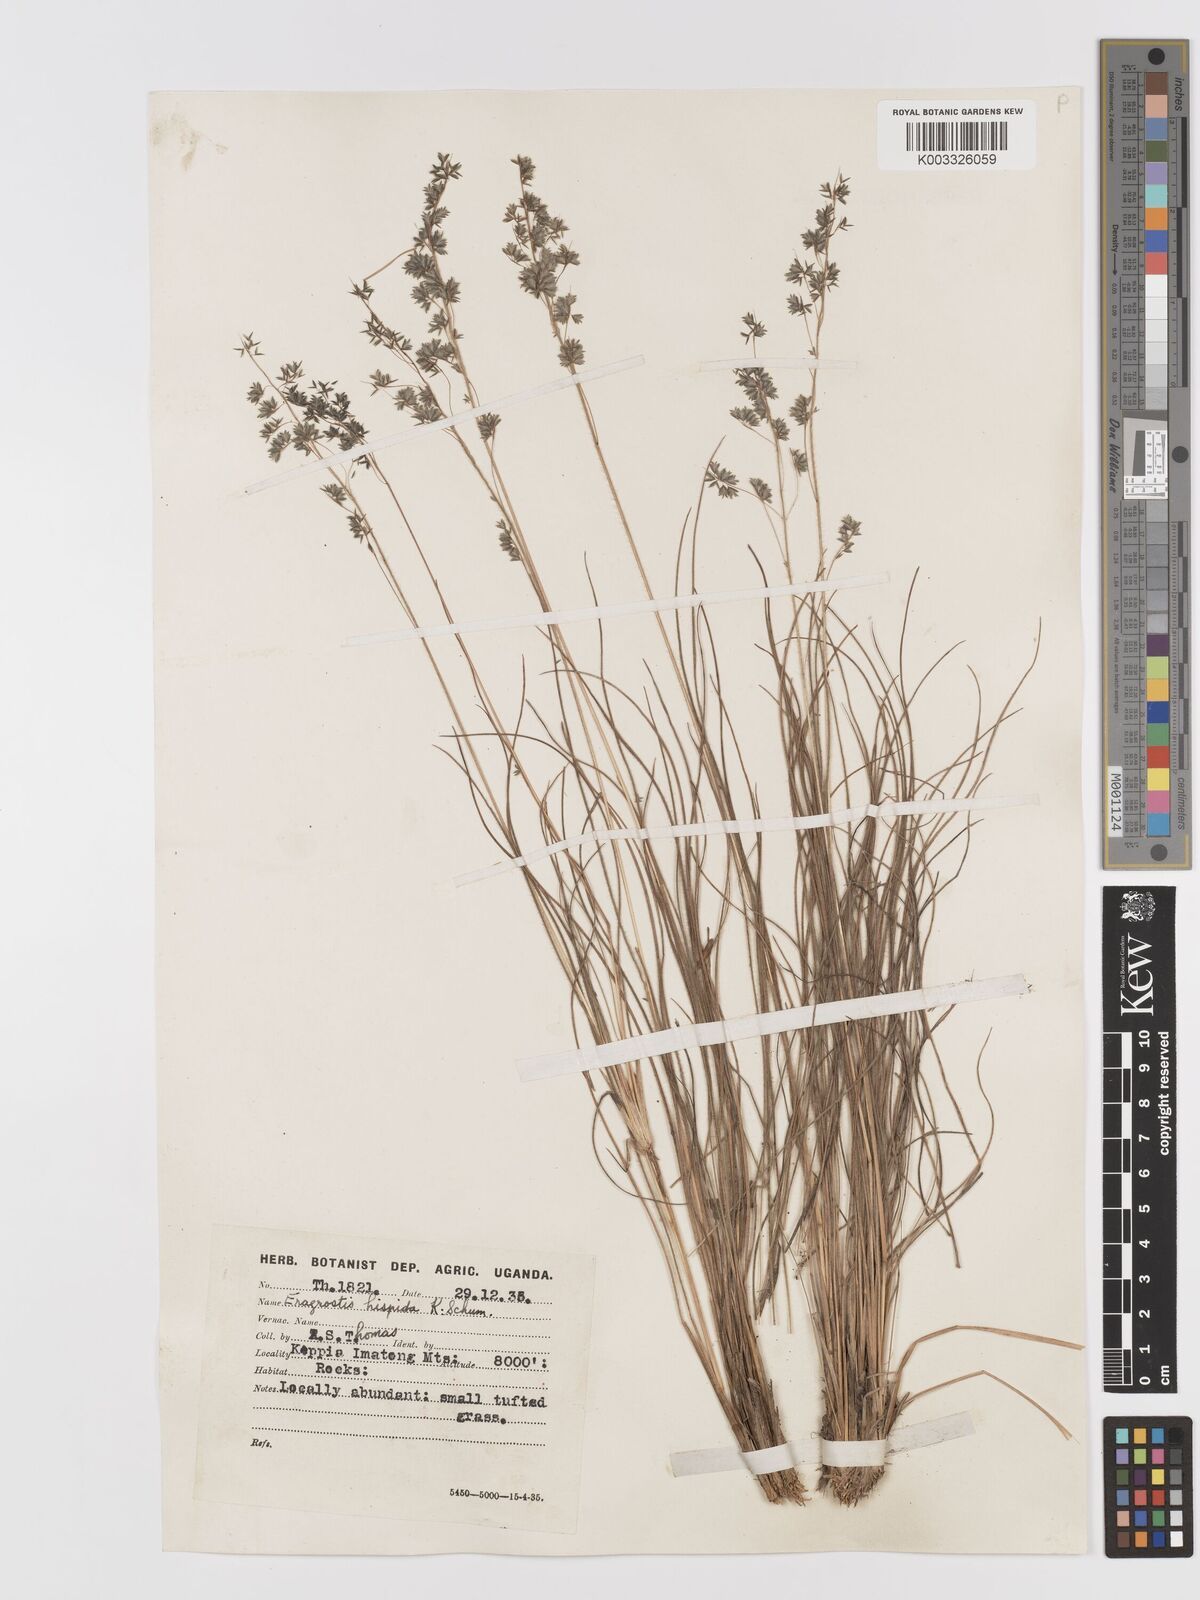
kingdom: Plantae
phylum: Tracheophyta
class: Liliopsida
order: Poales
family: Poaceae
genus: Eragrostis
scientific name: Eragrostis hispida
